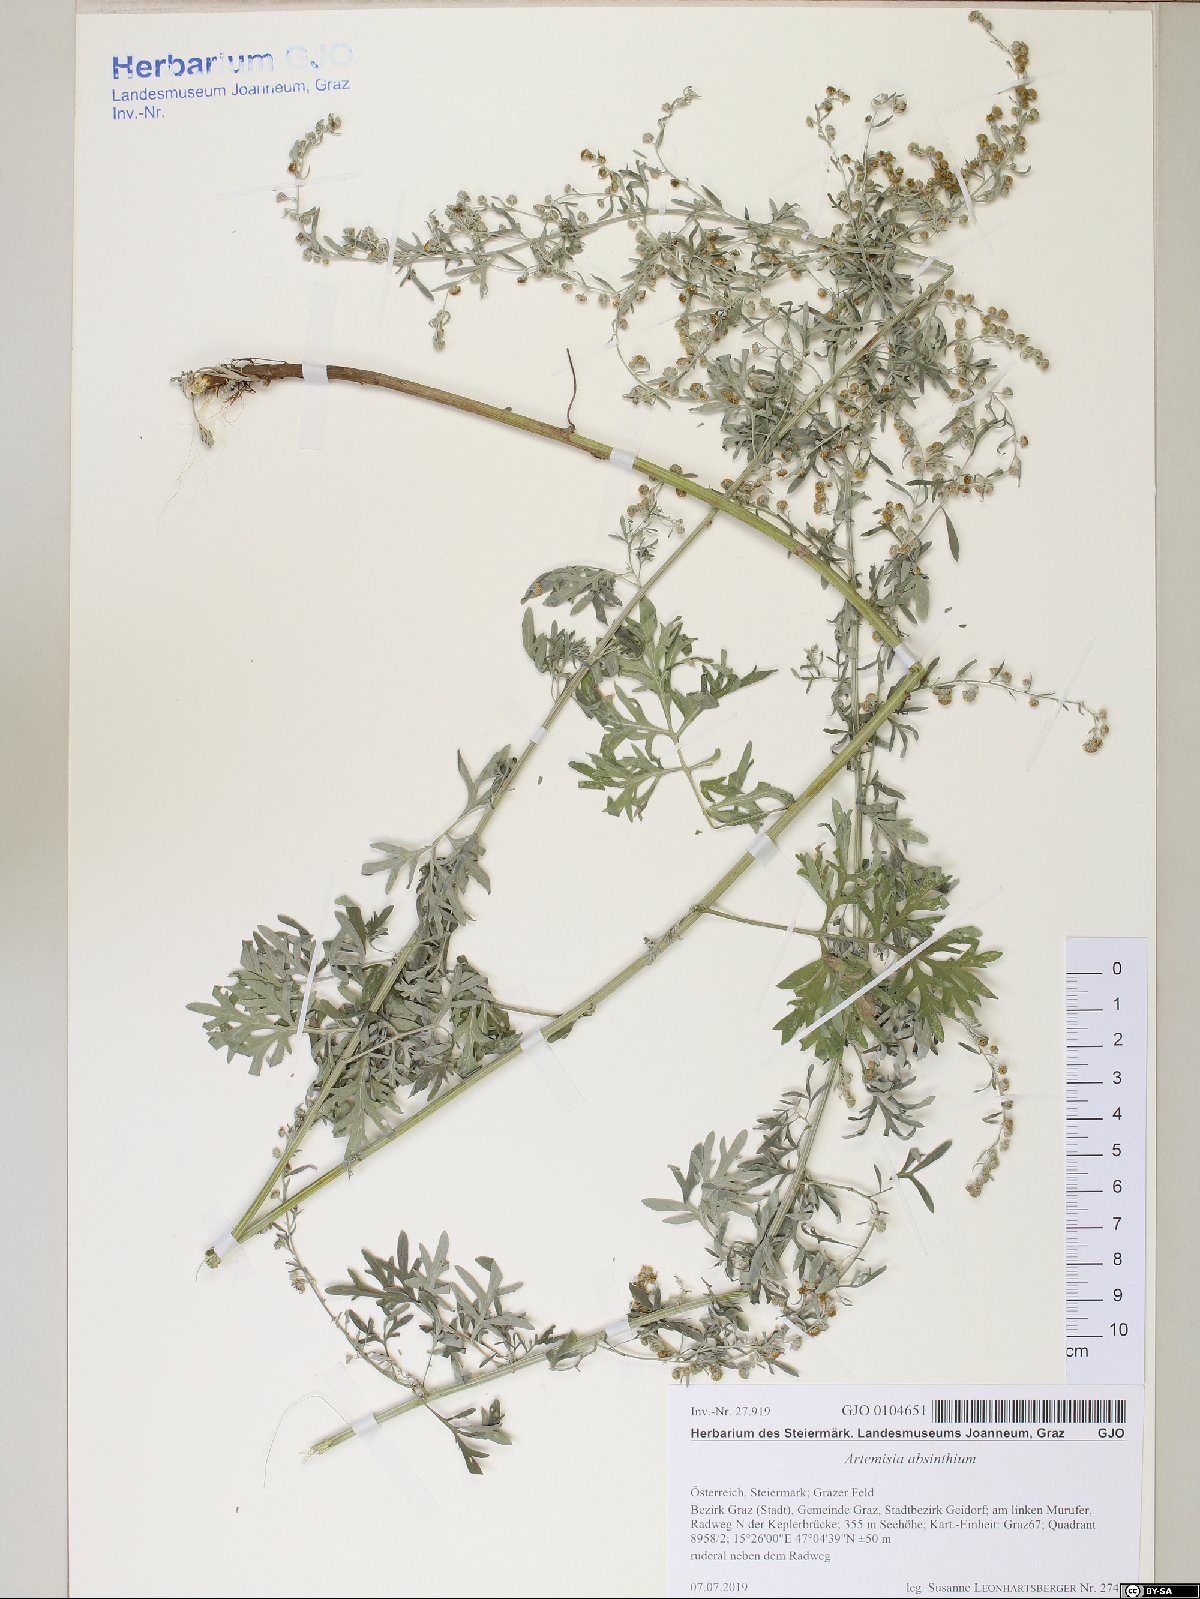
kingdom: Plantae
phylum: Tracheophyta
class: Magnoliopsida
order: Asterales
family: Asteraceae
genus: Artemisia
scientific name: Artemisia absinthium
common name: Wormwood
